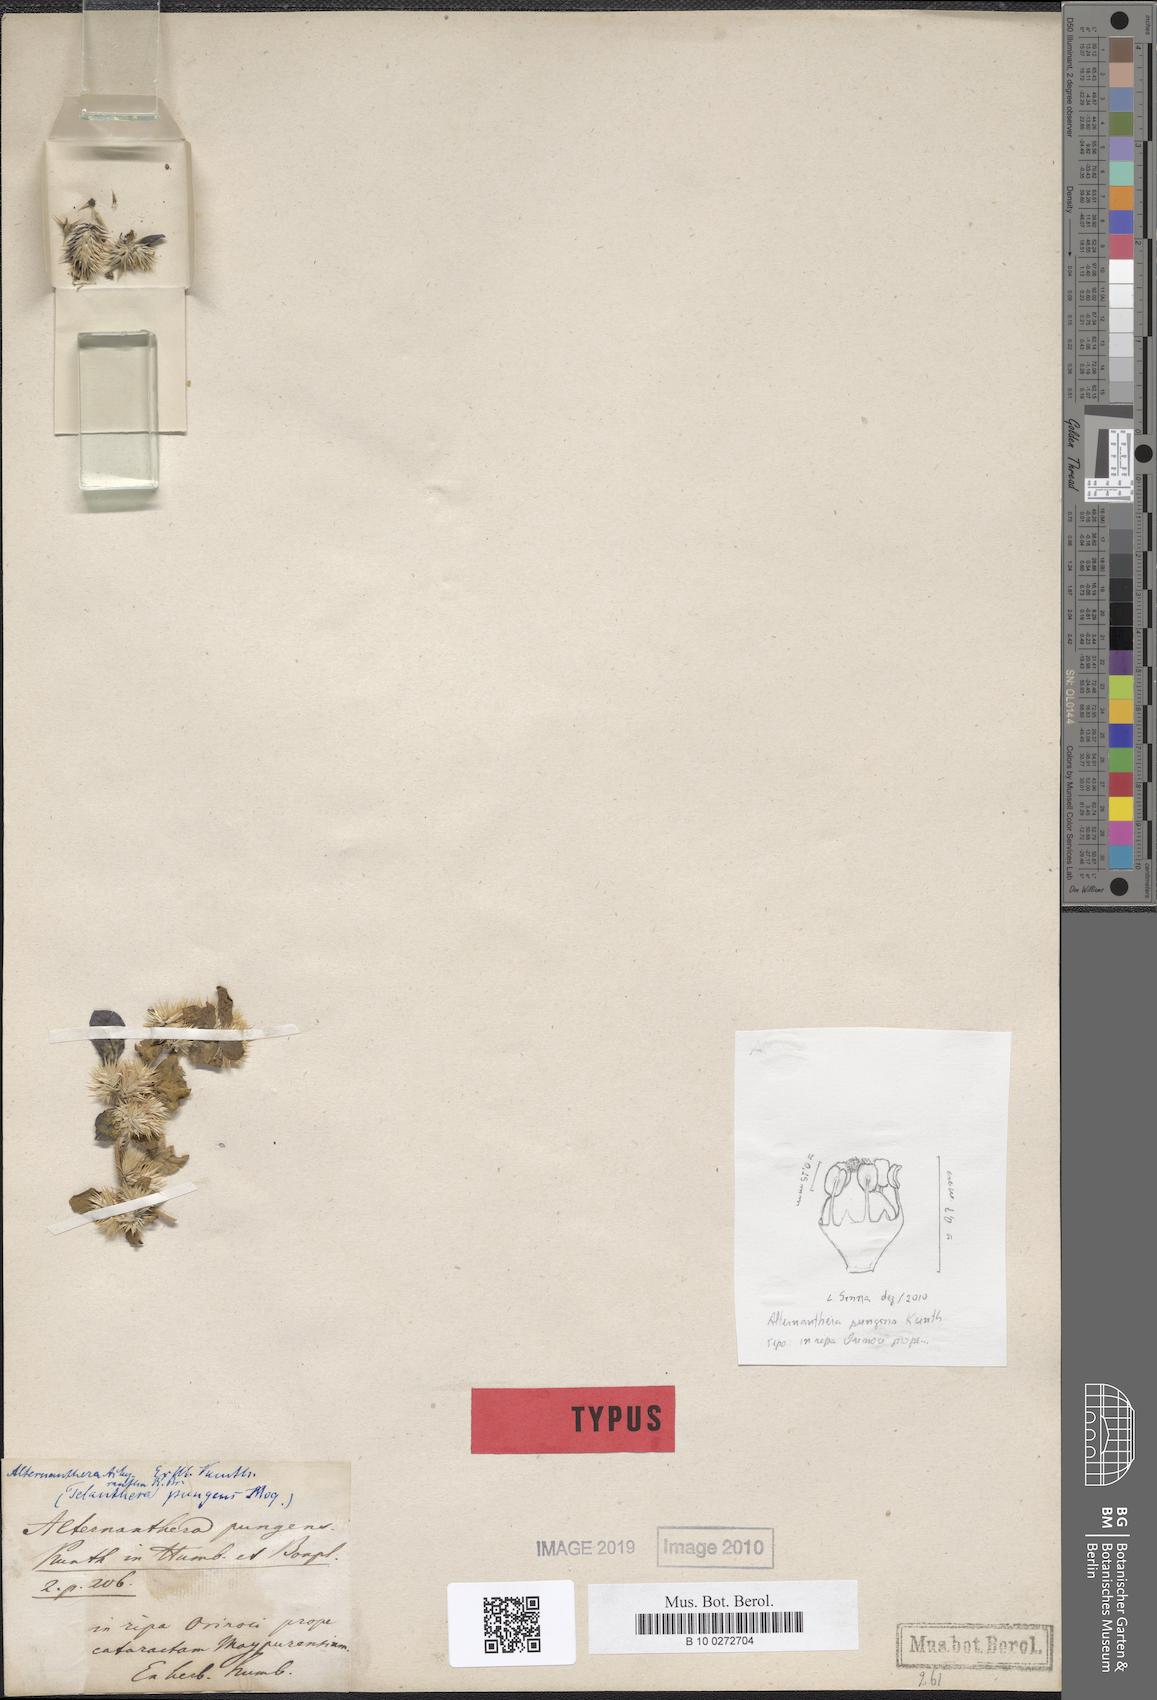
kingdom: Plantae
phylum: Tracheophyta
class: Magnoliopsida
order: Caryophyllales
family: Amaranthaceae
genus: Alternanthera
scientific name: Alternanthera pungens
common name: Khakiweed
